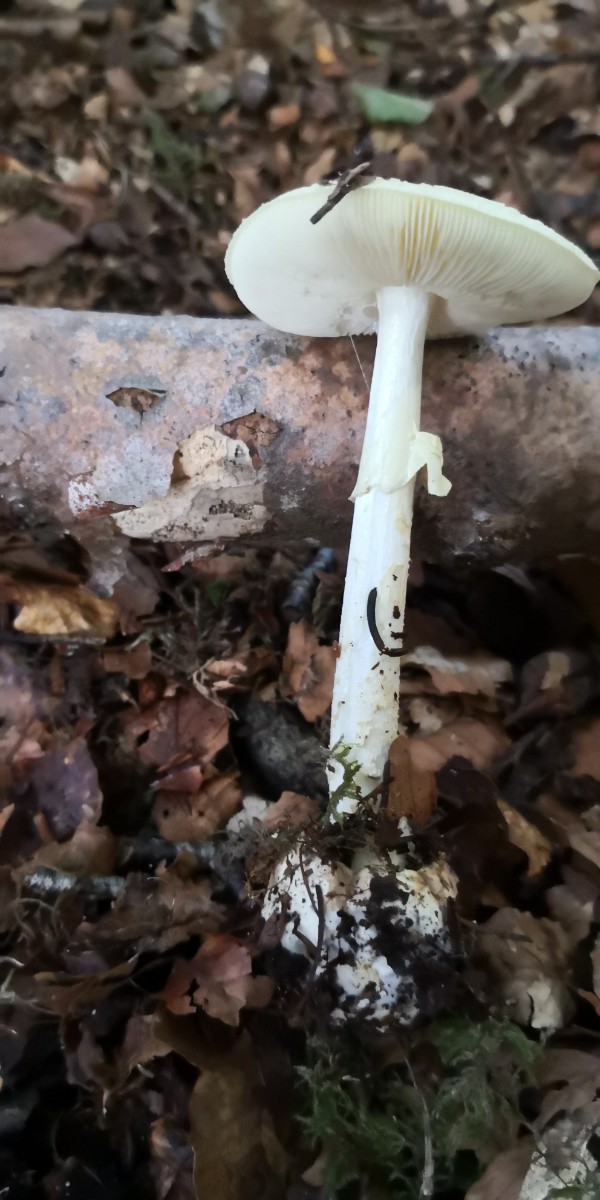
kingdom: Fungi
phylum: Basidiomycota
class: Agaricomycetes
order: Agaricales
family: Amanitaceae
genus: Amanita
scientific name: Amanita citrina
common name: kugleknoldet fluesvamp
